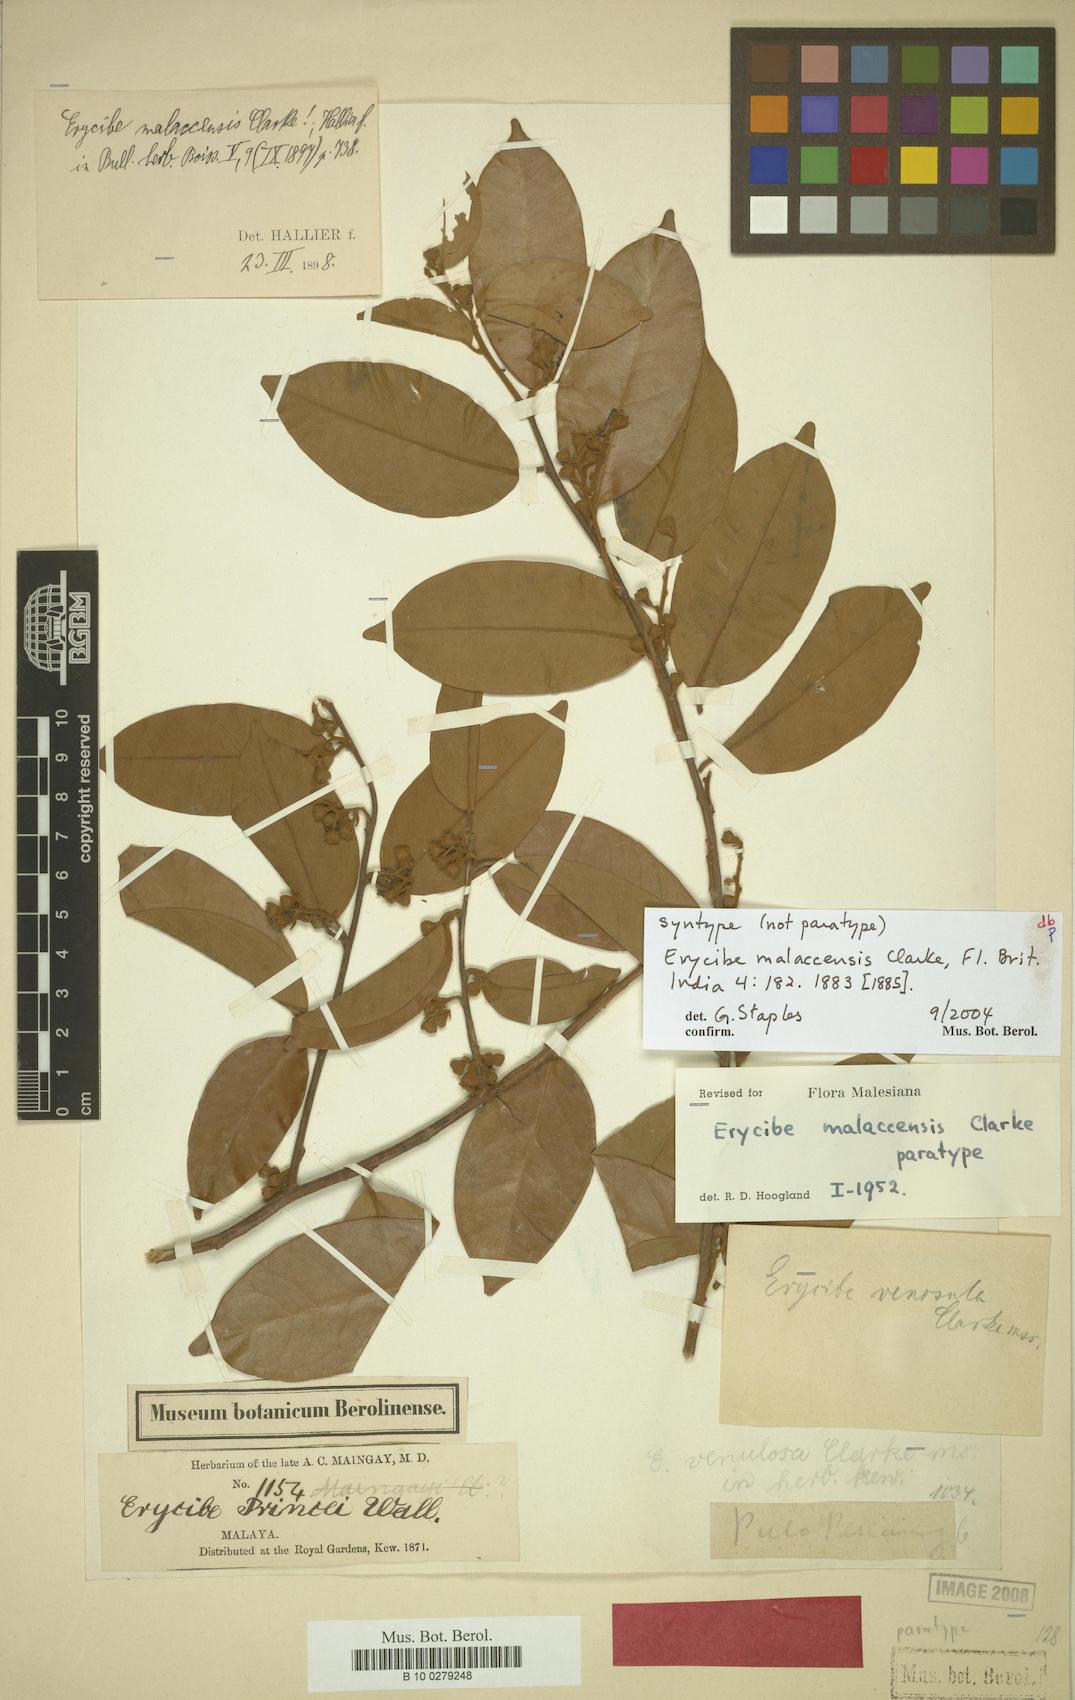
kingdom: Plantae
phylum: Tracheophyta
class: Magnoliopsida
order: Solanales
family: Convolvulaceae
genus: Erycibe
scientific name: Erycibe malaccensis
